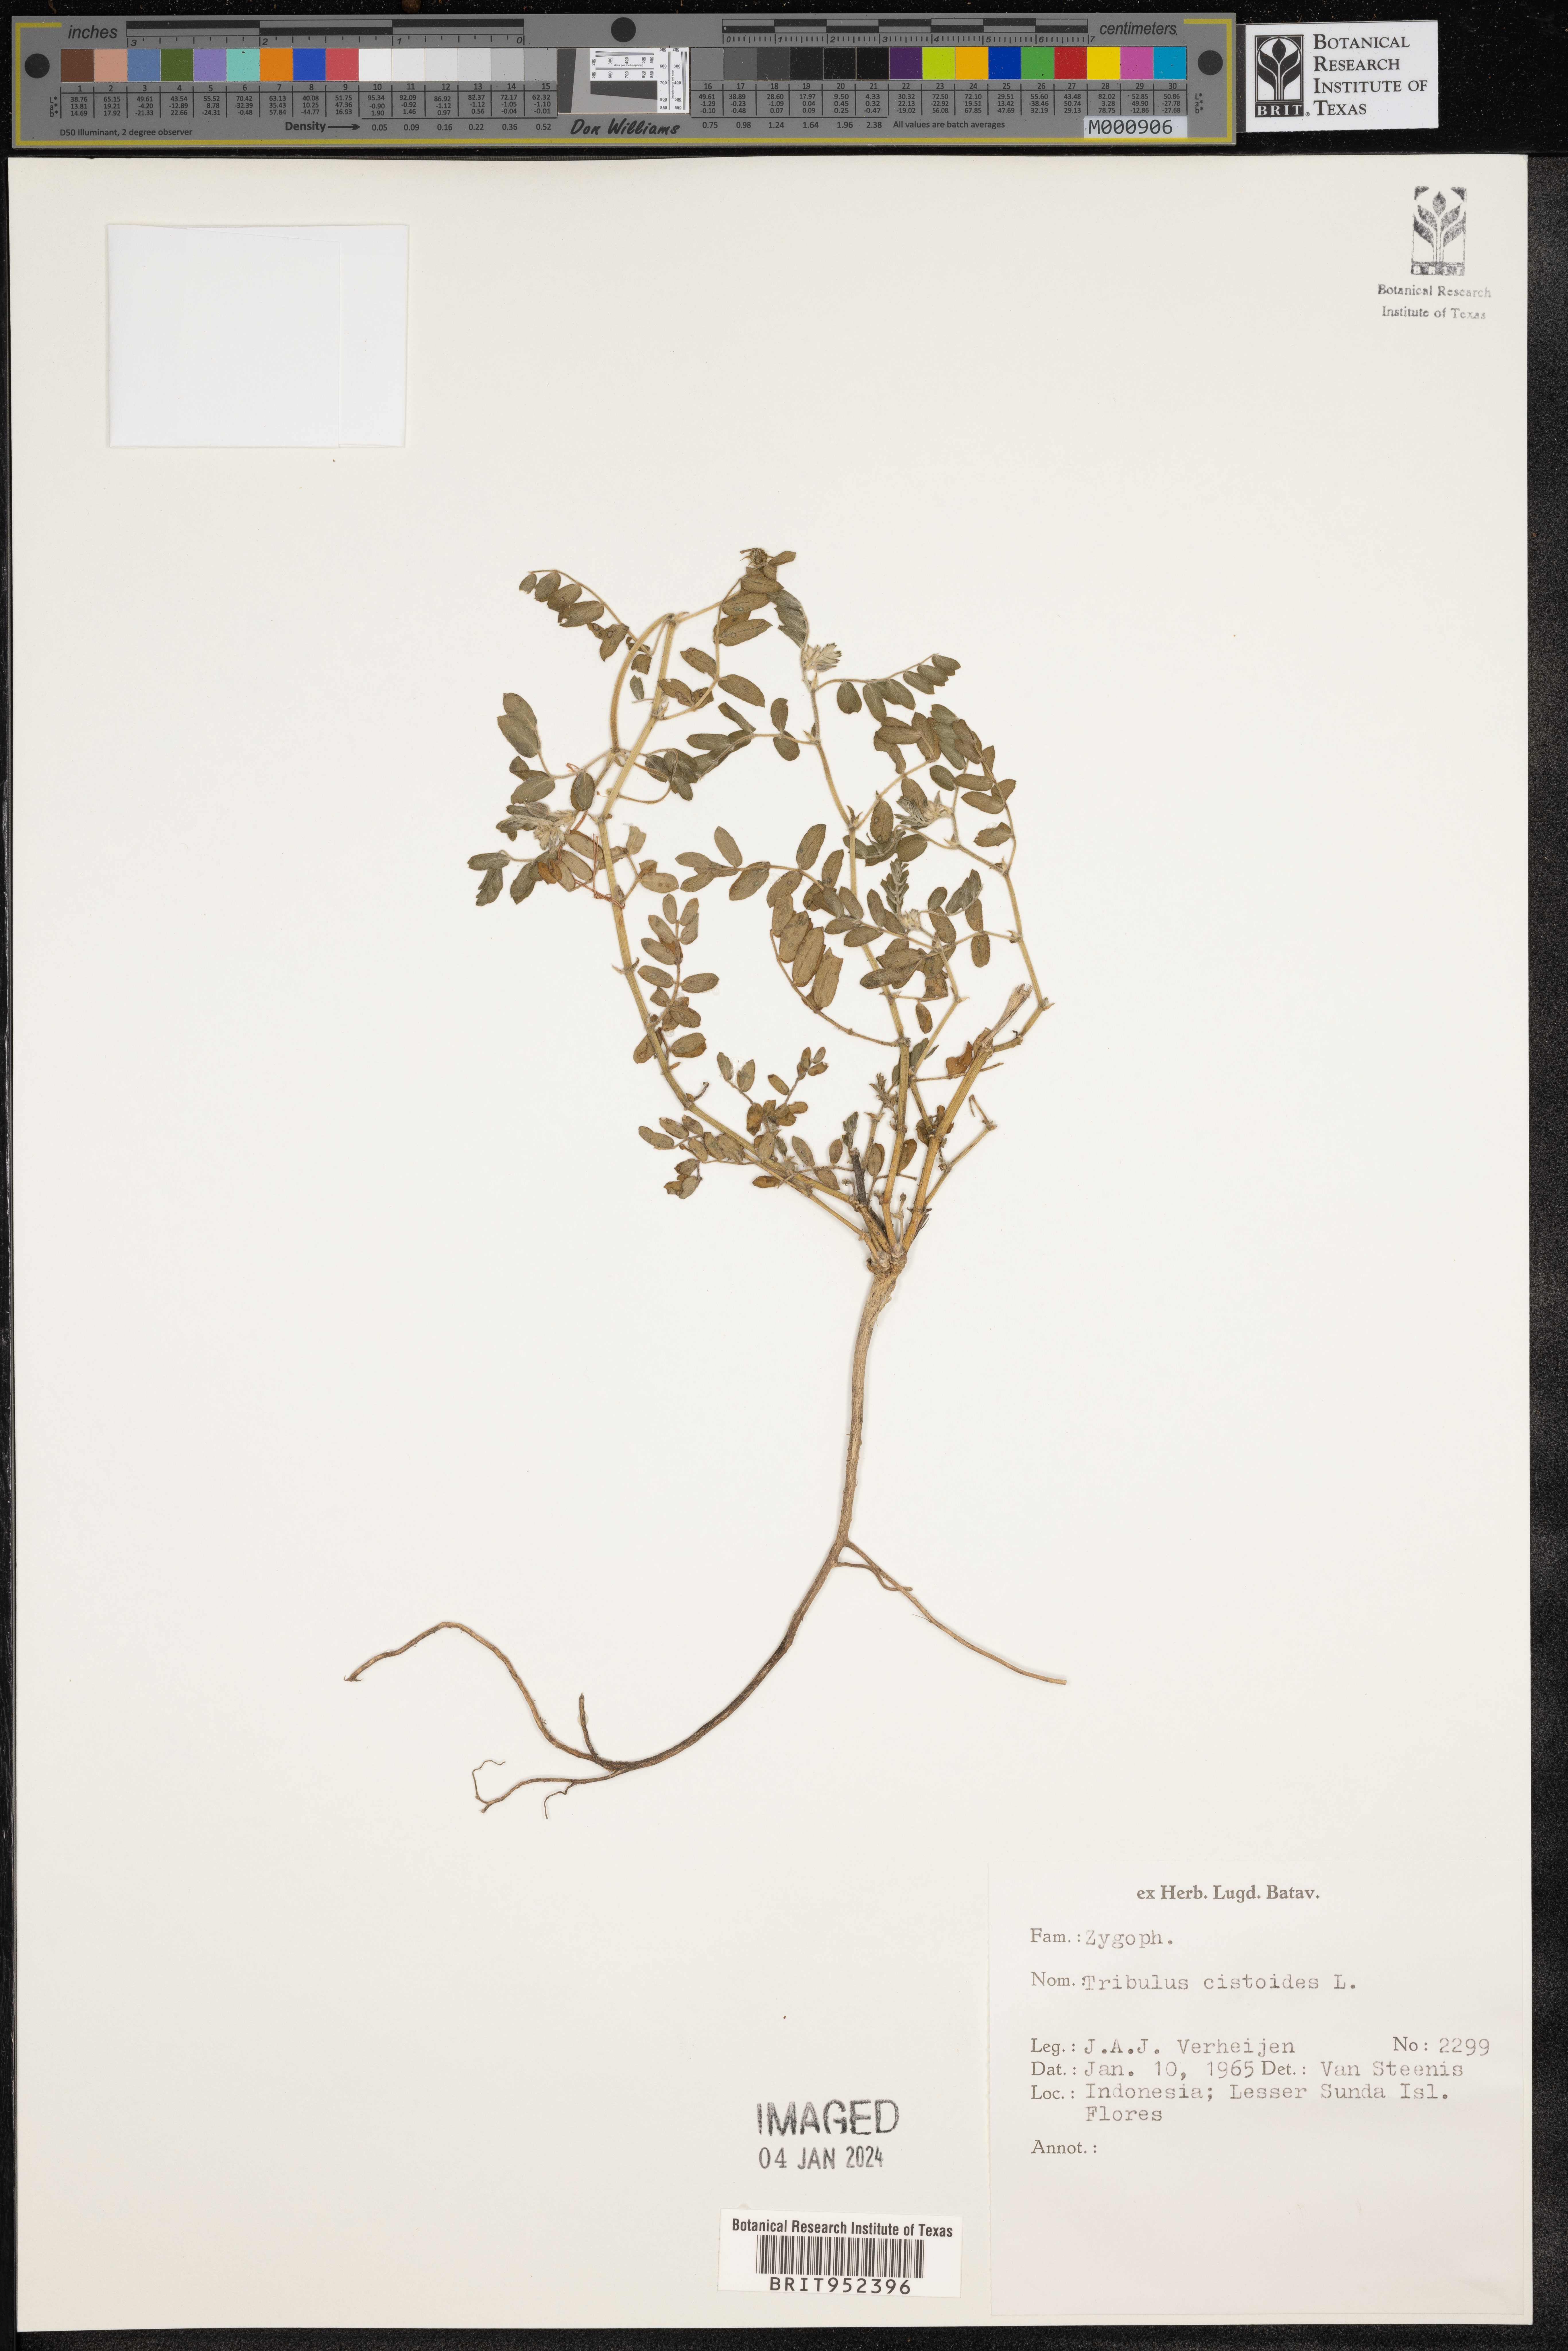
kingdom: Plantae
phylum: Tracheophyta
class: Magnoliopsida
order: Zygophyllales
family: Zygophyllaceae
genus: Tribulus
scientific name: Tribulus
